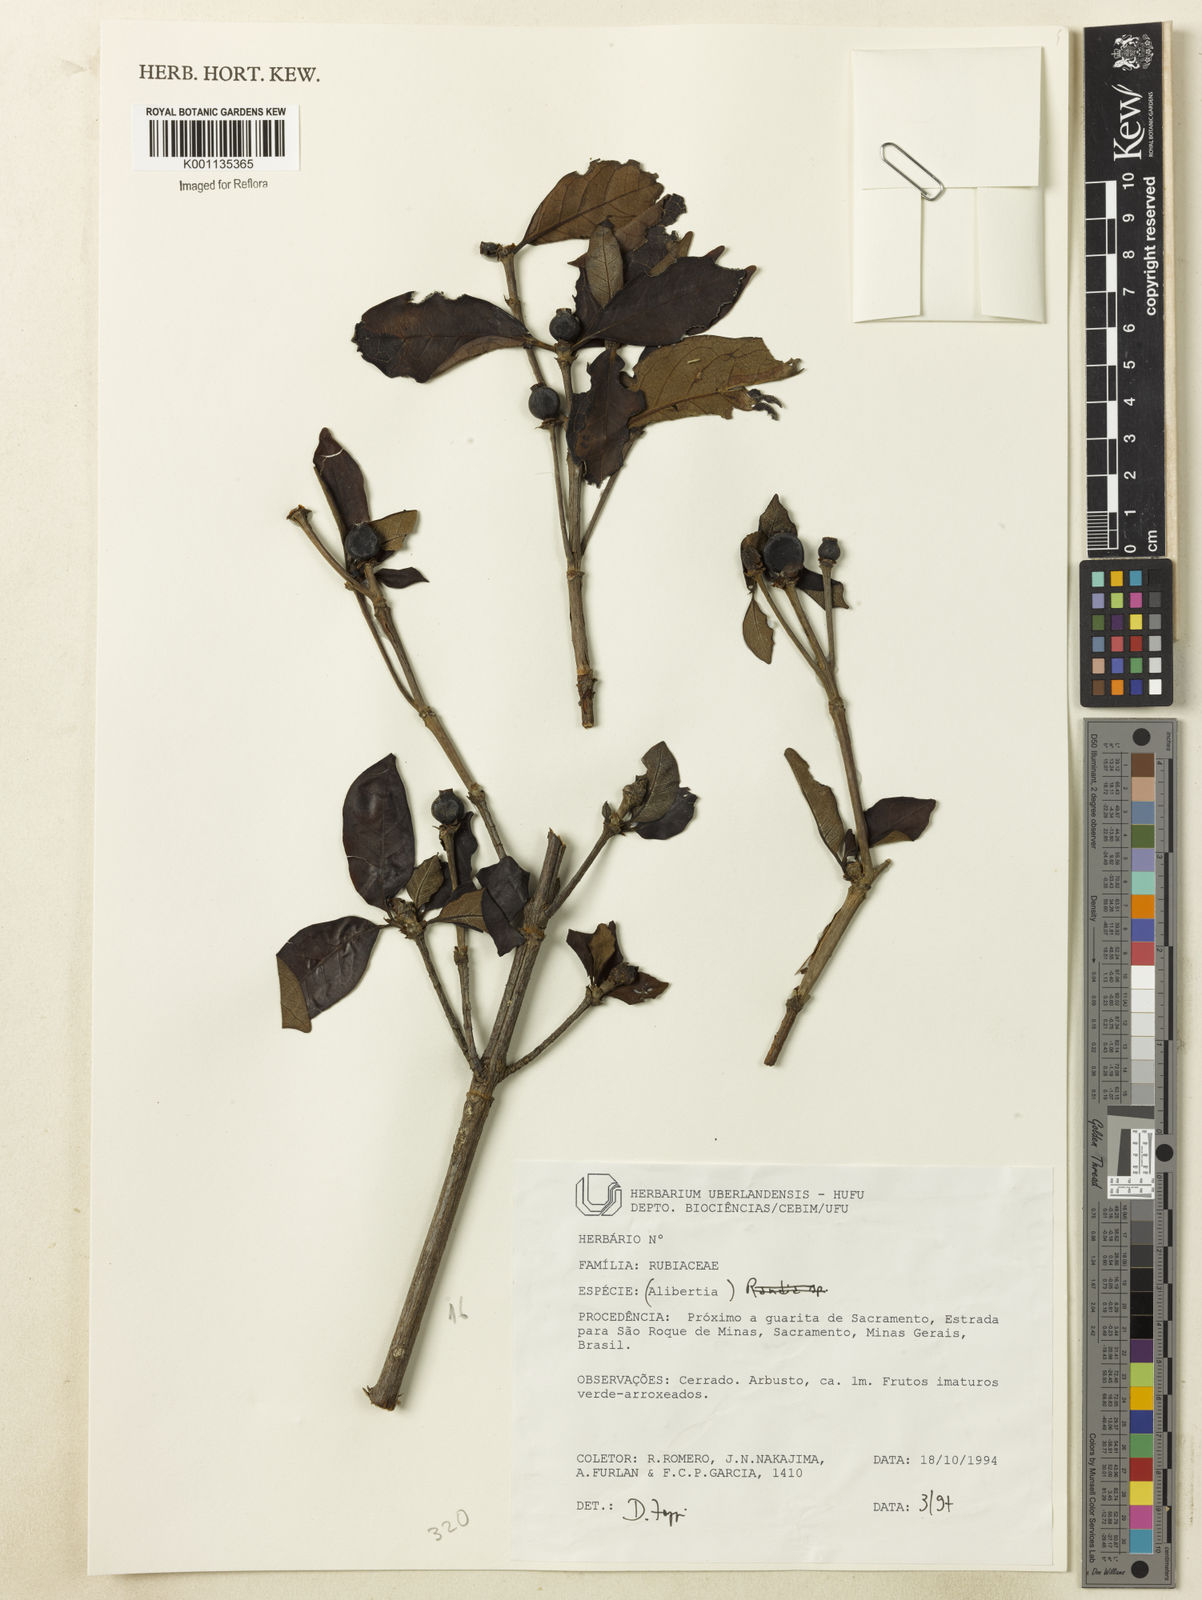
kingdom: Plantae
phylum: Tracheophyta
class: Magnoliopsida
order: Gentianales
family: Rubiaceae
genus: Cordiera
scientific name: Cordiera elliptica
